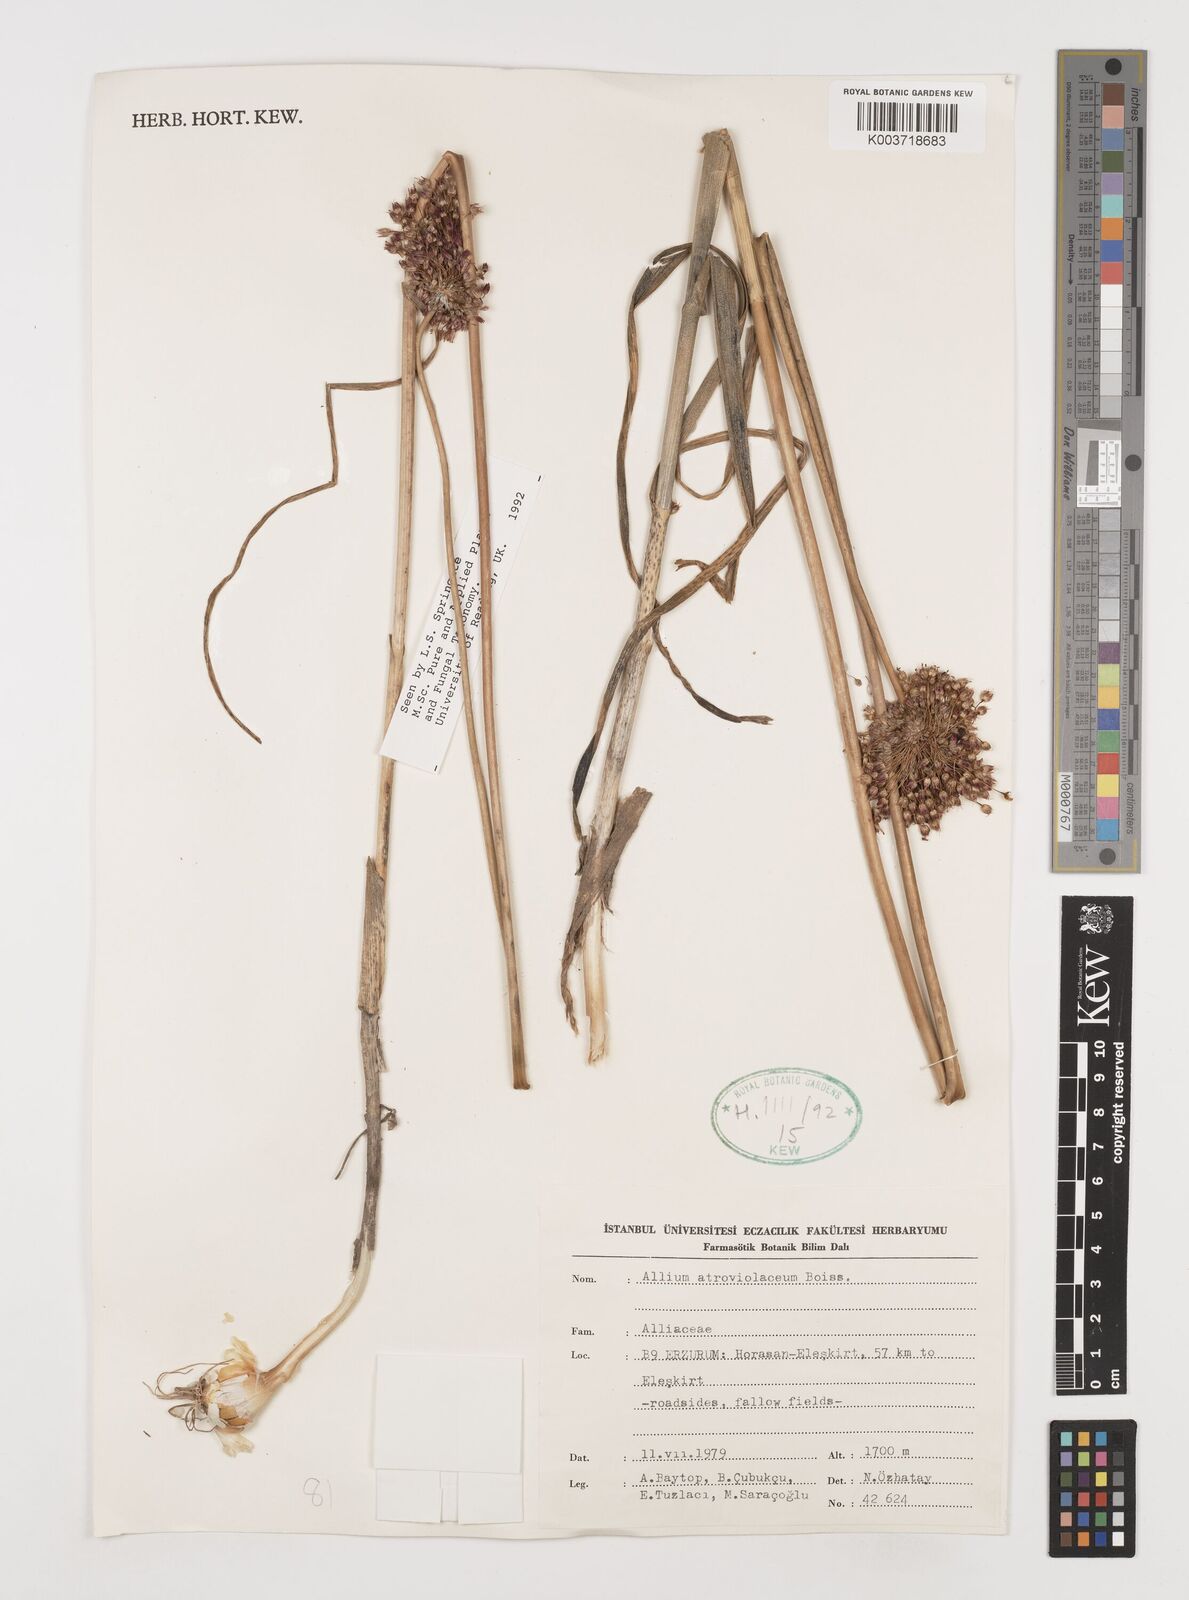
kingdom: Plantae
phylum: Tracheophyta
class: Liliopsida
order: Asparagales
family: Amaryllidaceae
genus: Allium
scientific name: Allium atroviolaceum
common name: Broadleaf wild leek
